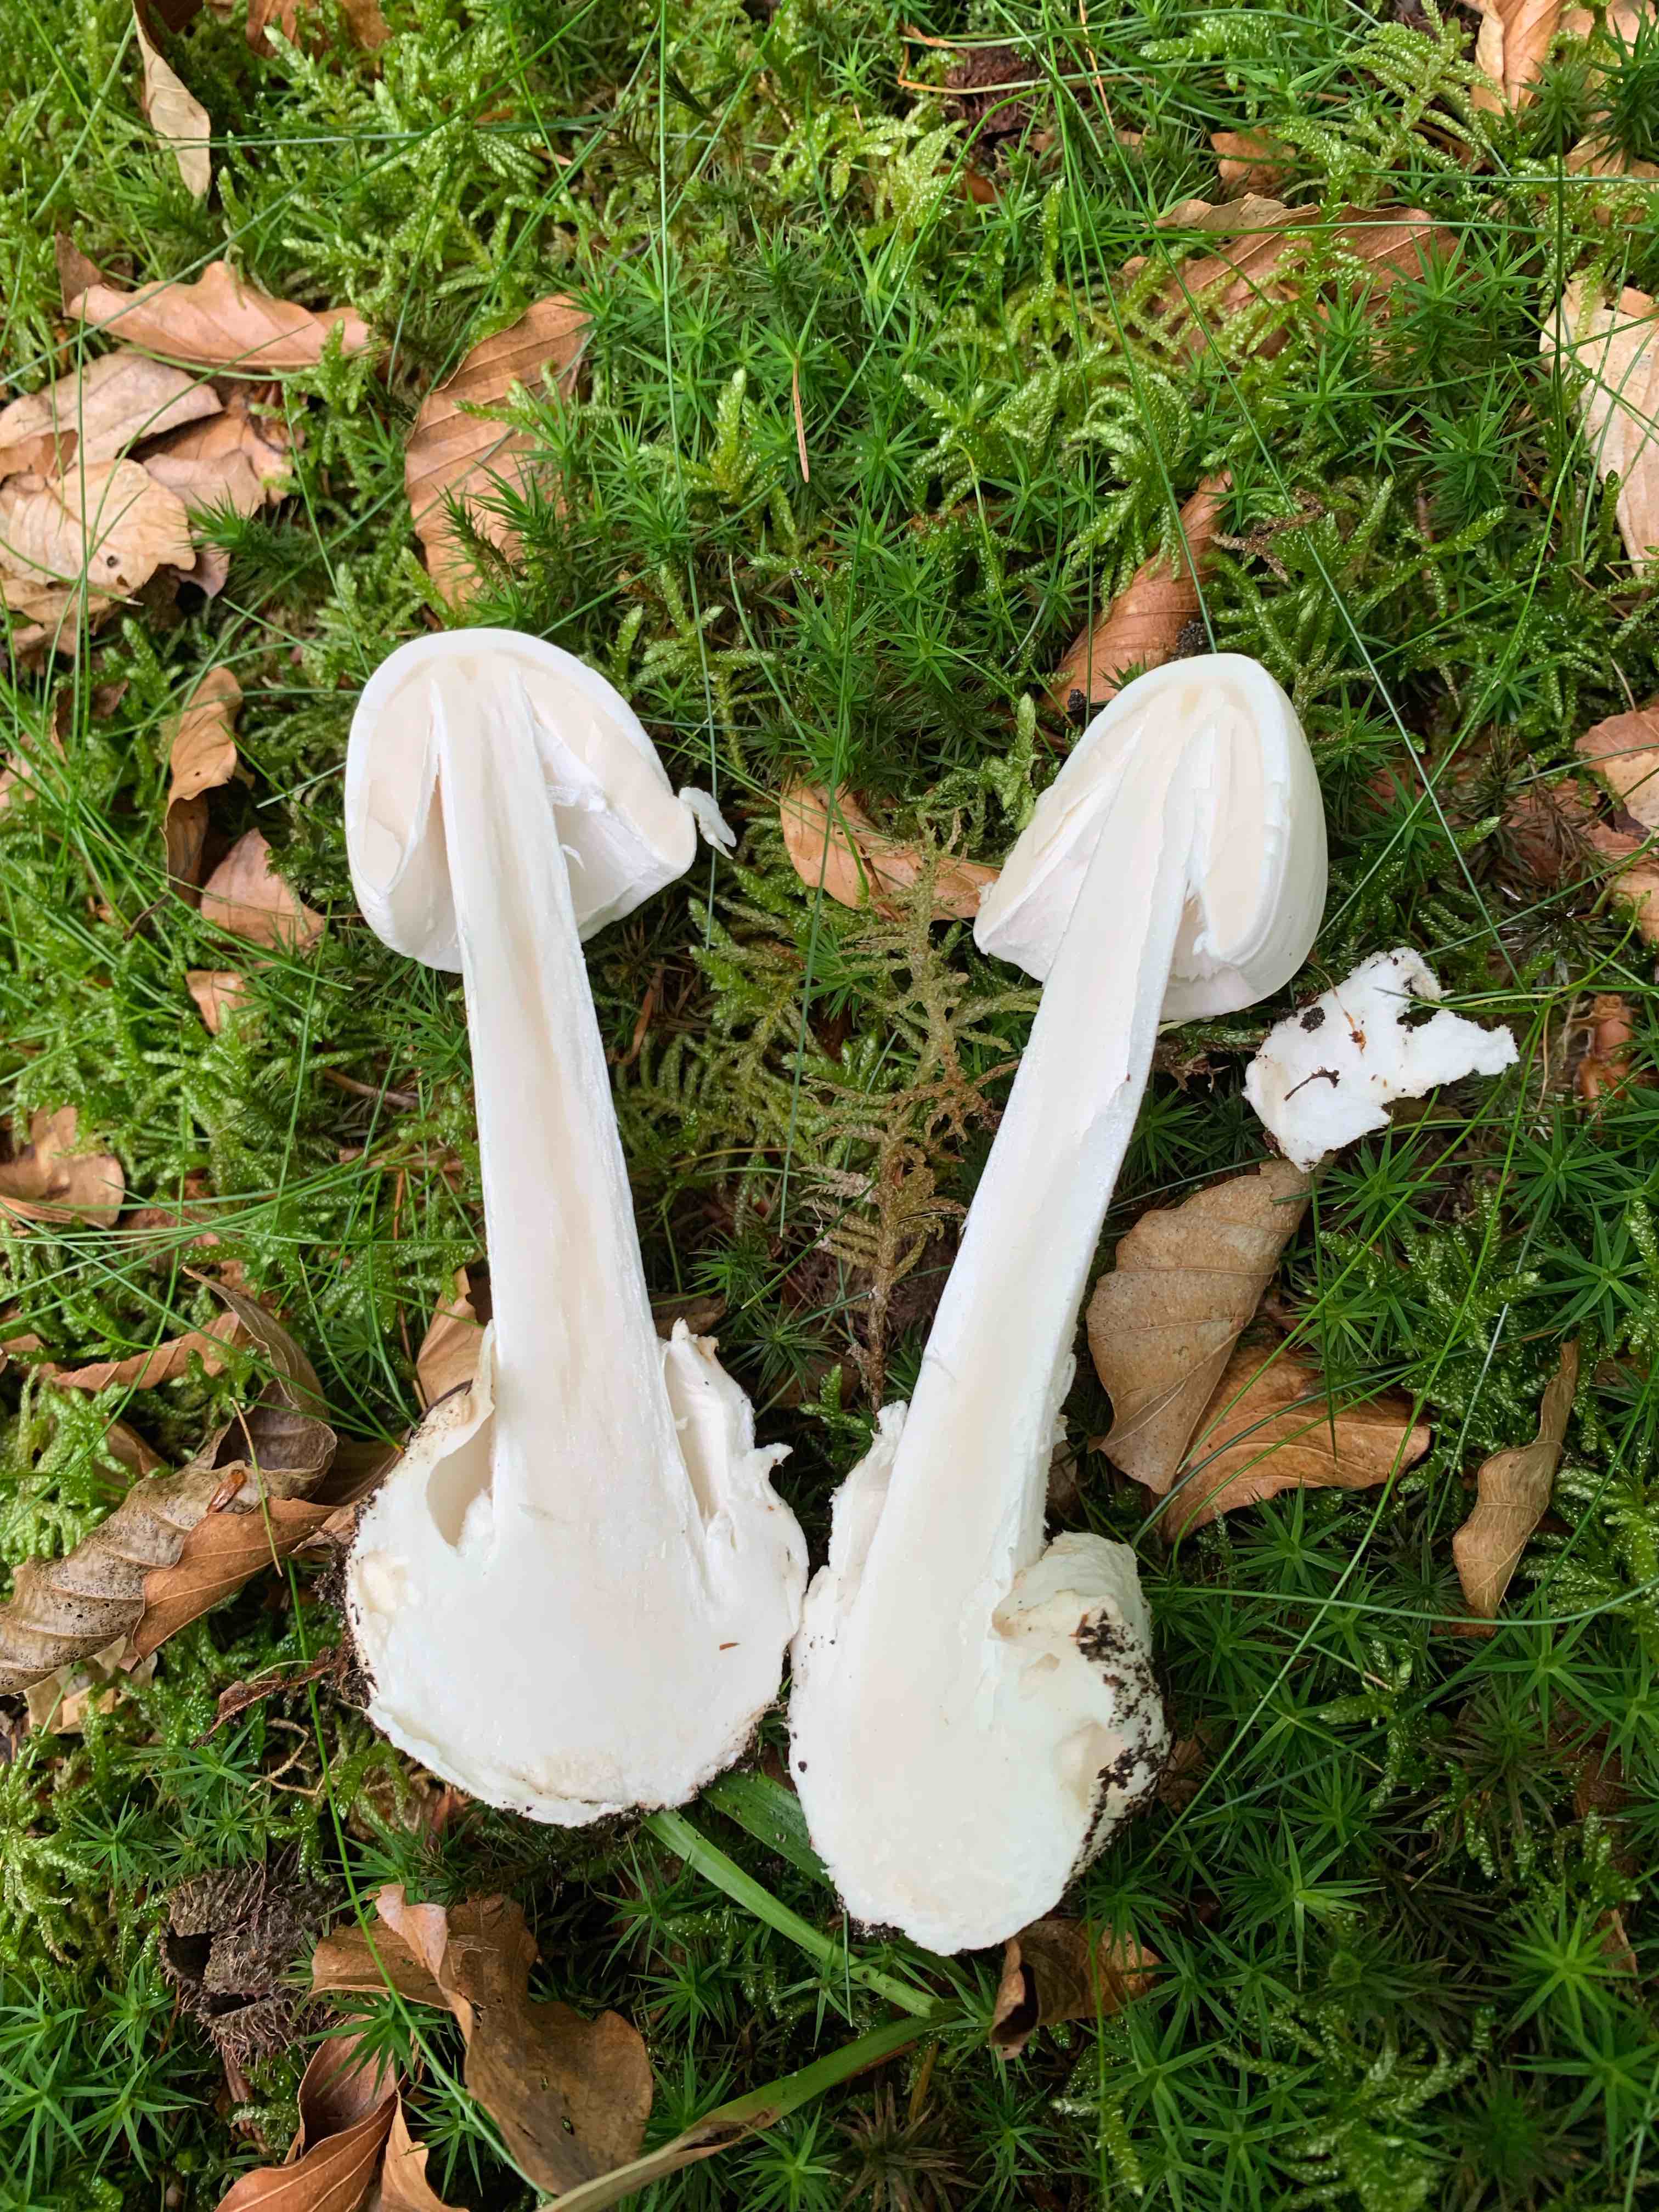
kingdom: Fungi
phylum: Basidiomycota
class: Agaricomycetes
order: Agaricales
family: Amanitaceae
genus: Amanita
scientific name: Amanita virosa
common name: snehvid fluesvamp
